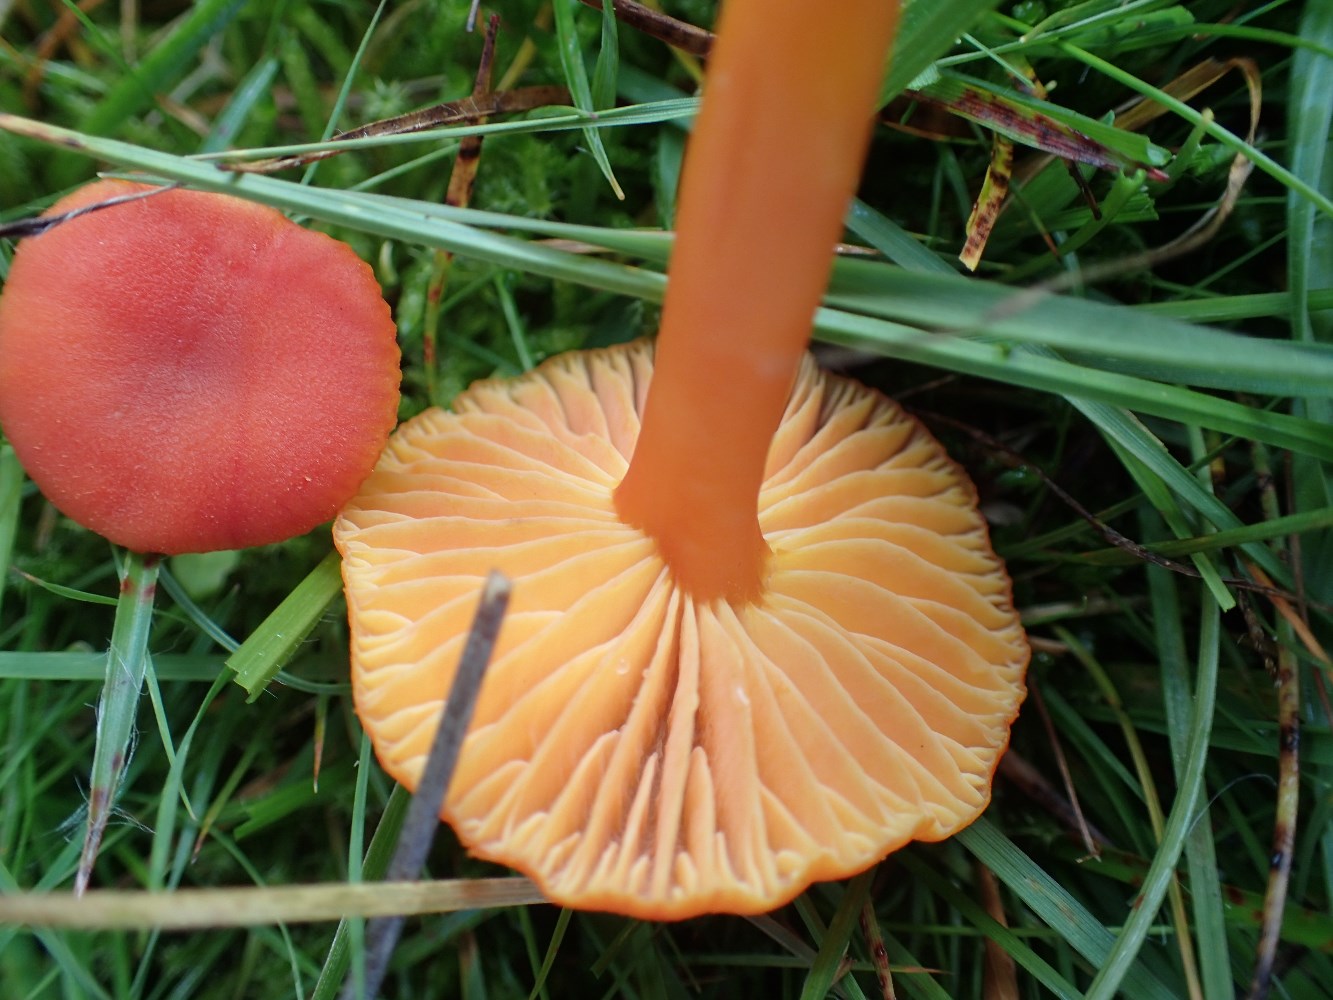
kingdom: Fungi
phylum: Basidiomycota
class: Agaricomycetes
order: Agaricales
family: Hygrophoraceae
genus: Hygrocybe
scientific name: Hygrocybe miniata
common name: mønje-vokshat
